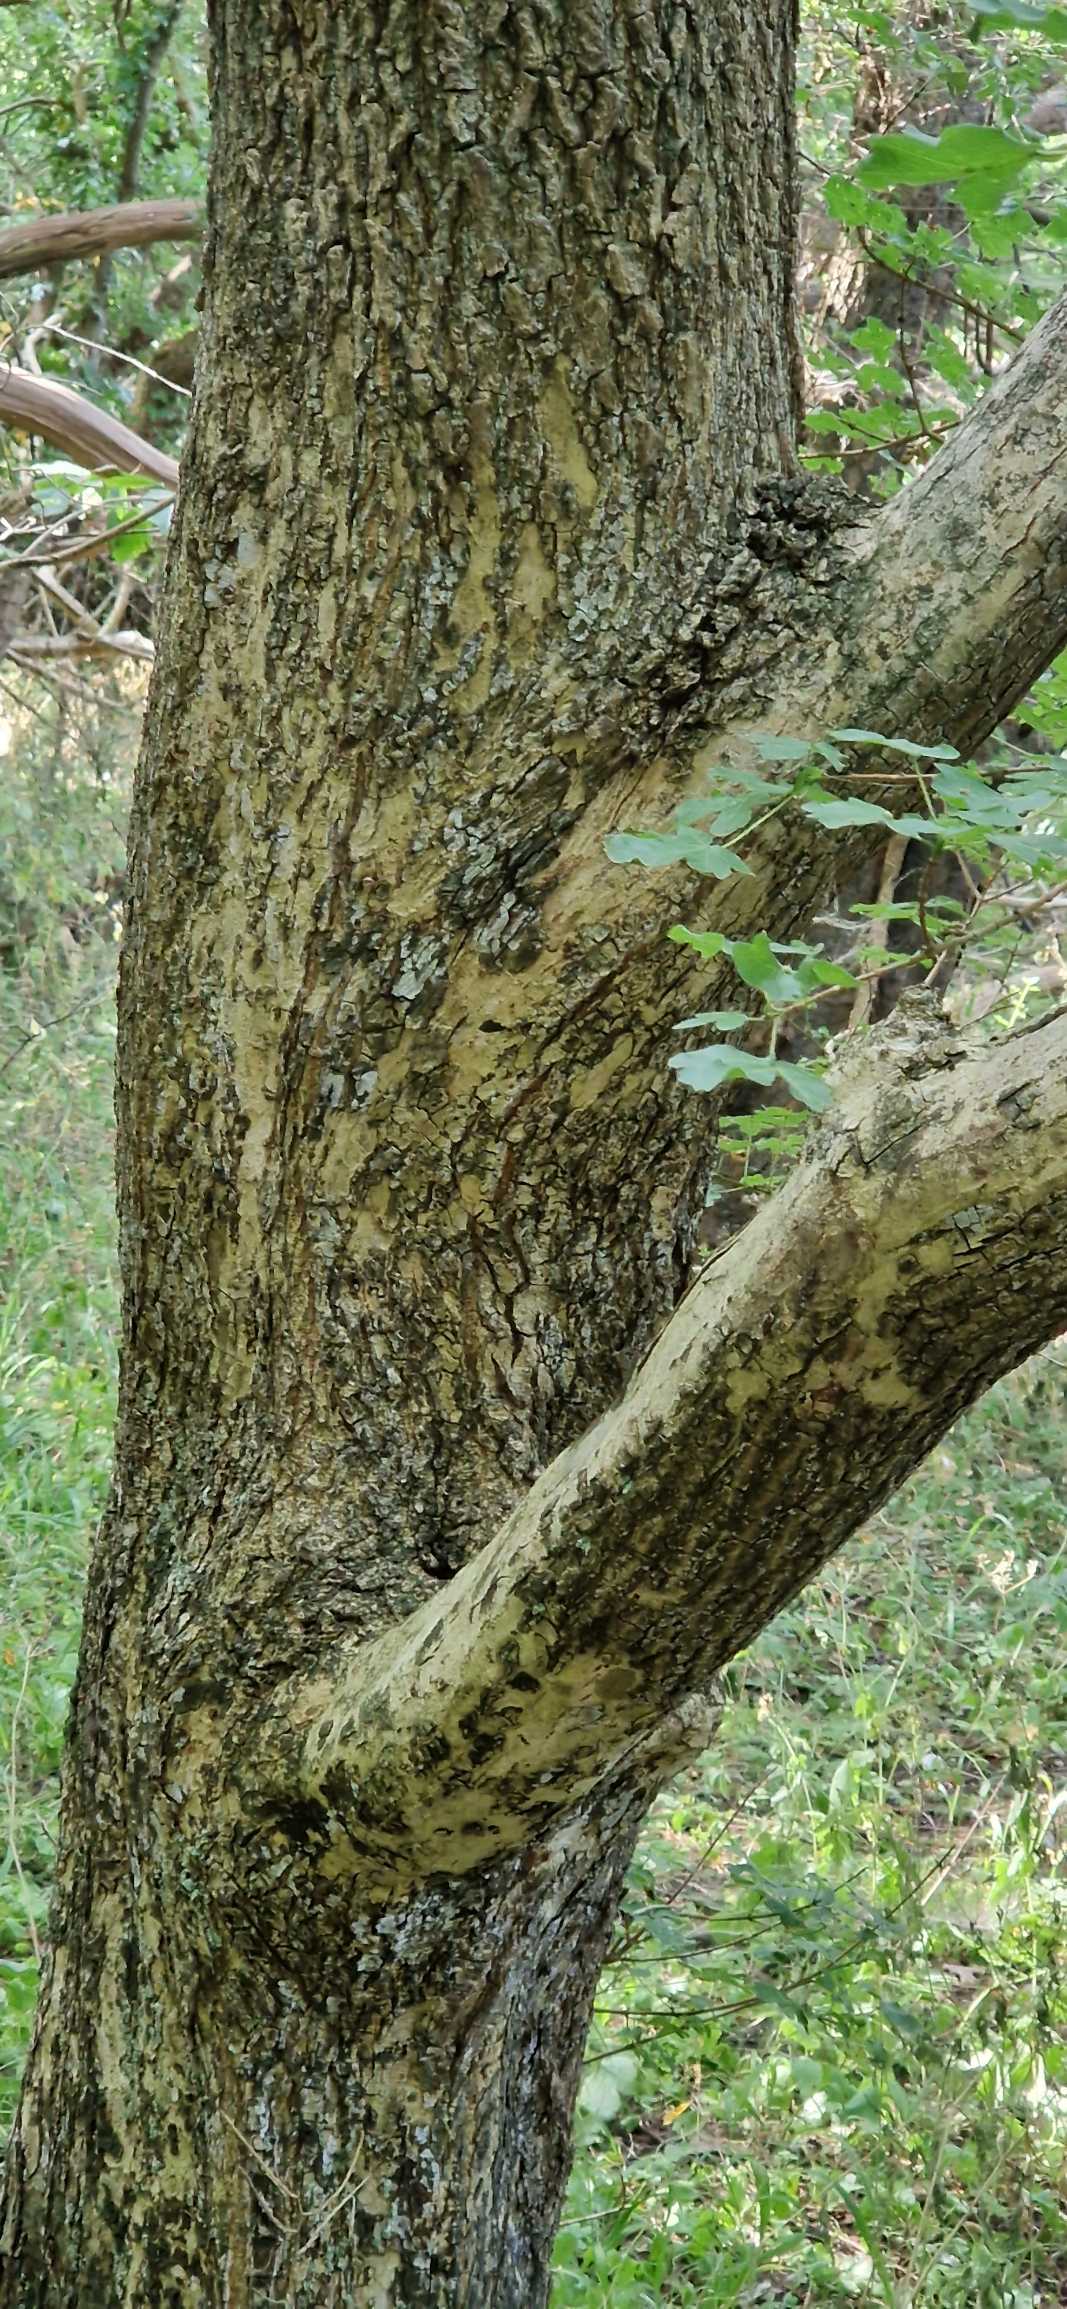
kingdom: Plantae
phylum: Tracheophyta
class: Magnoliopsida
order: Sapindales
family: Sapindaceae
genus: Acer
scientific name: Acer campestre
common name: Navr
